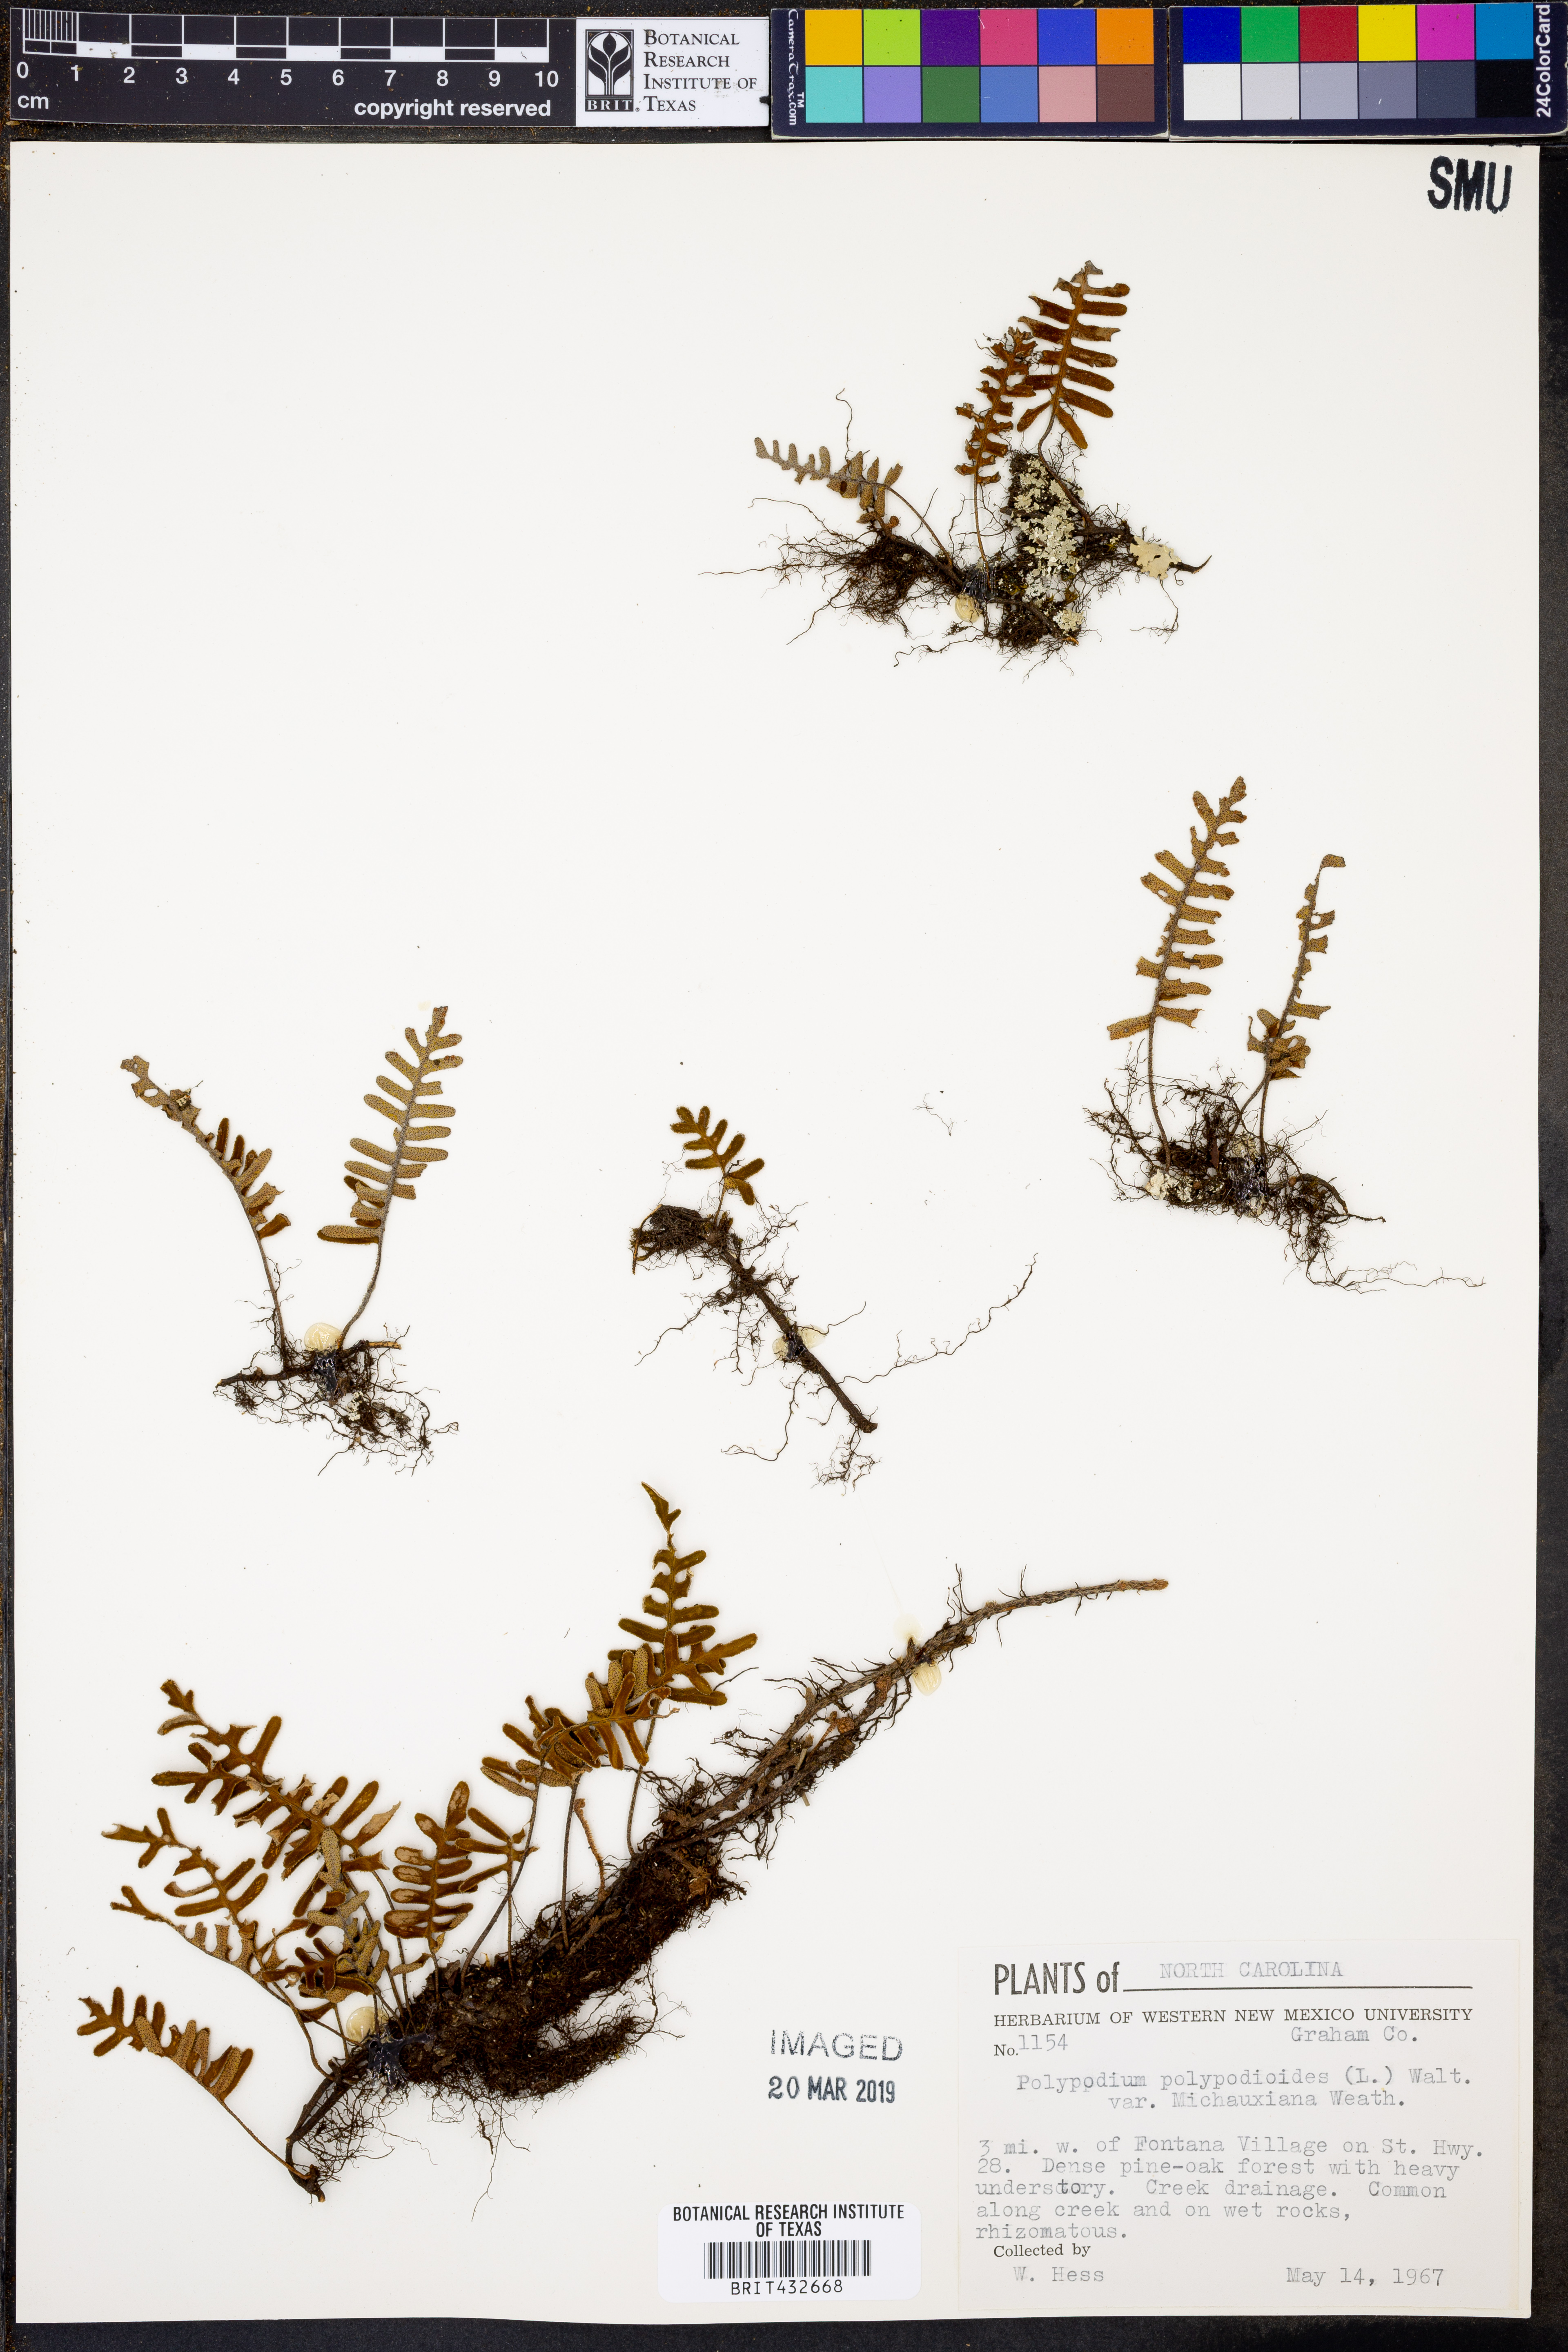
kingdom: Plantae
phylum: Tracheophyta
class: Polypodiopsida
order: Polypodiales
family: Polypodiaceae
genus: Pleopeltis
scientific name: Pleopeltis michauxiana
